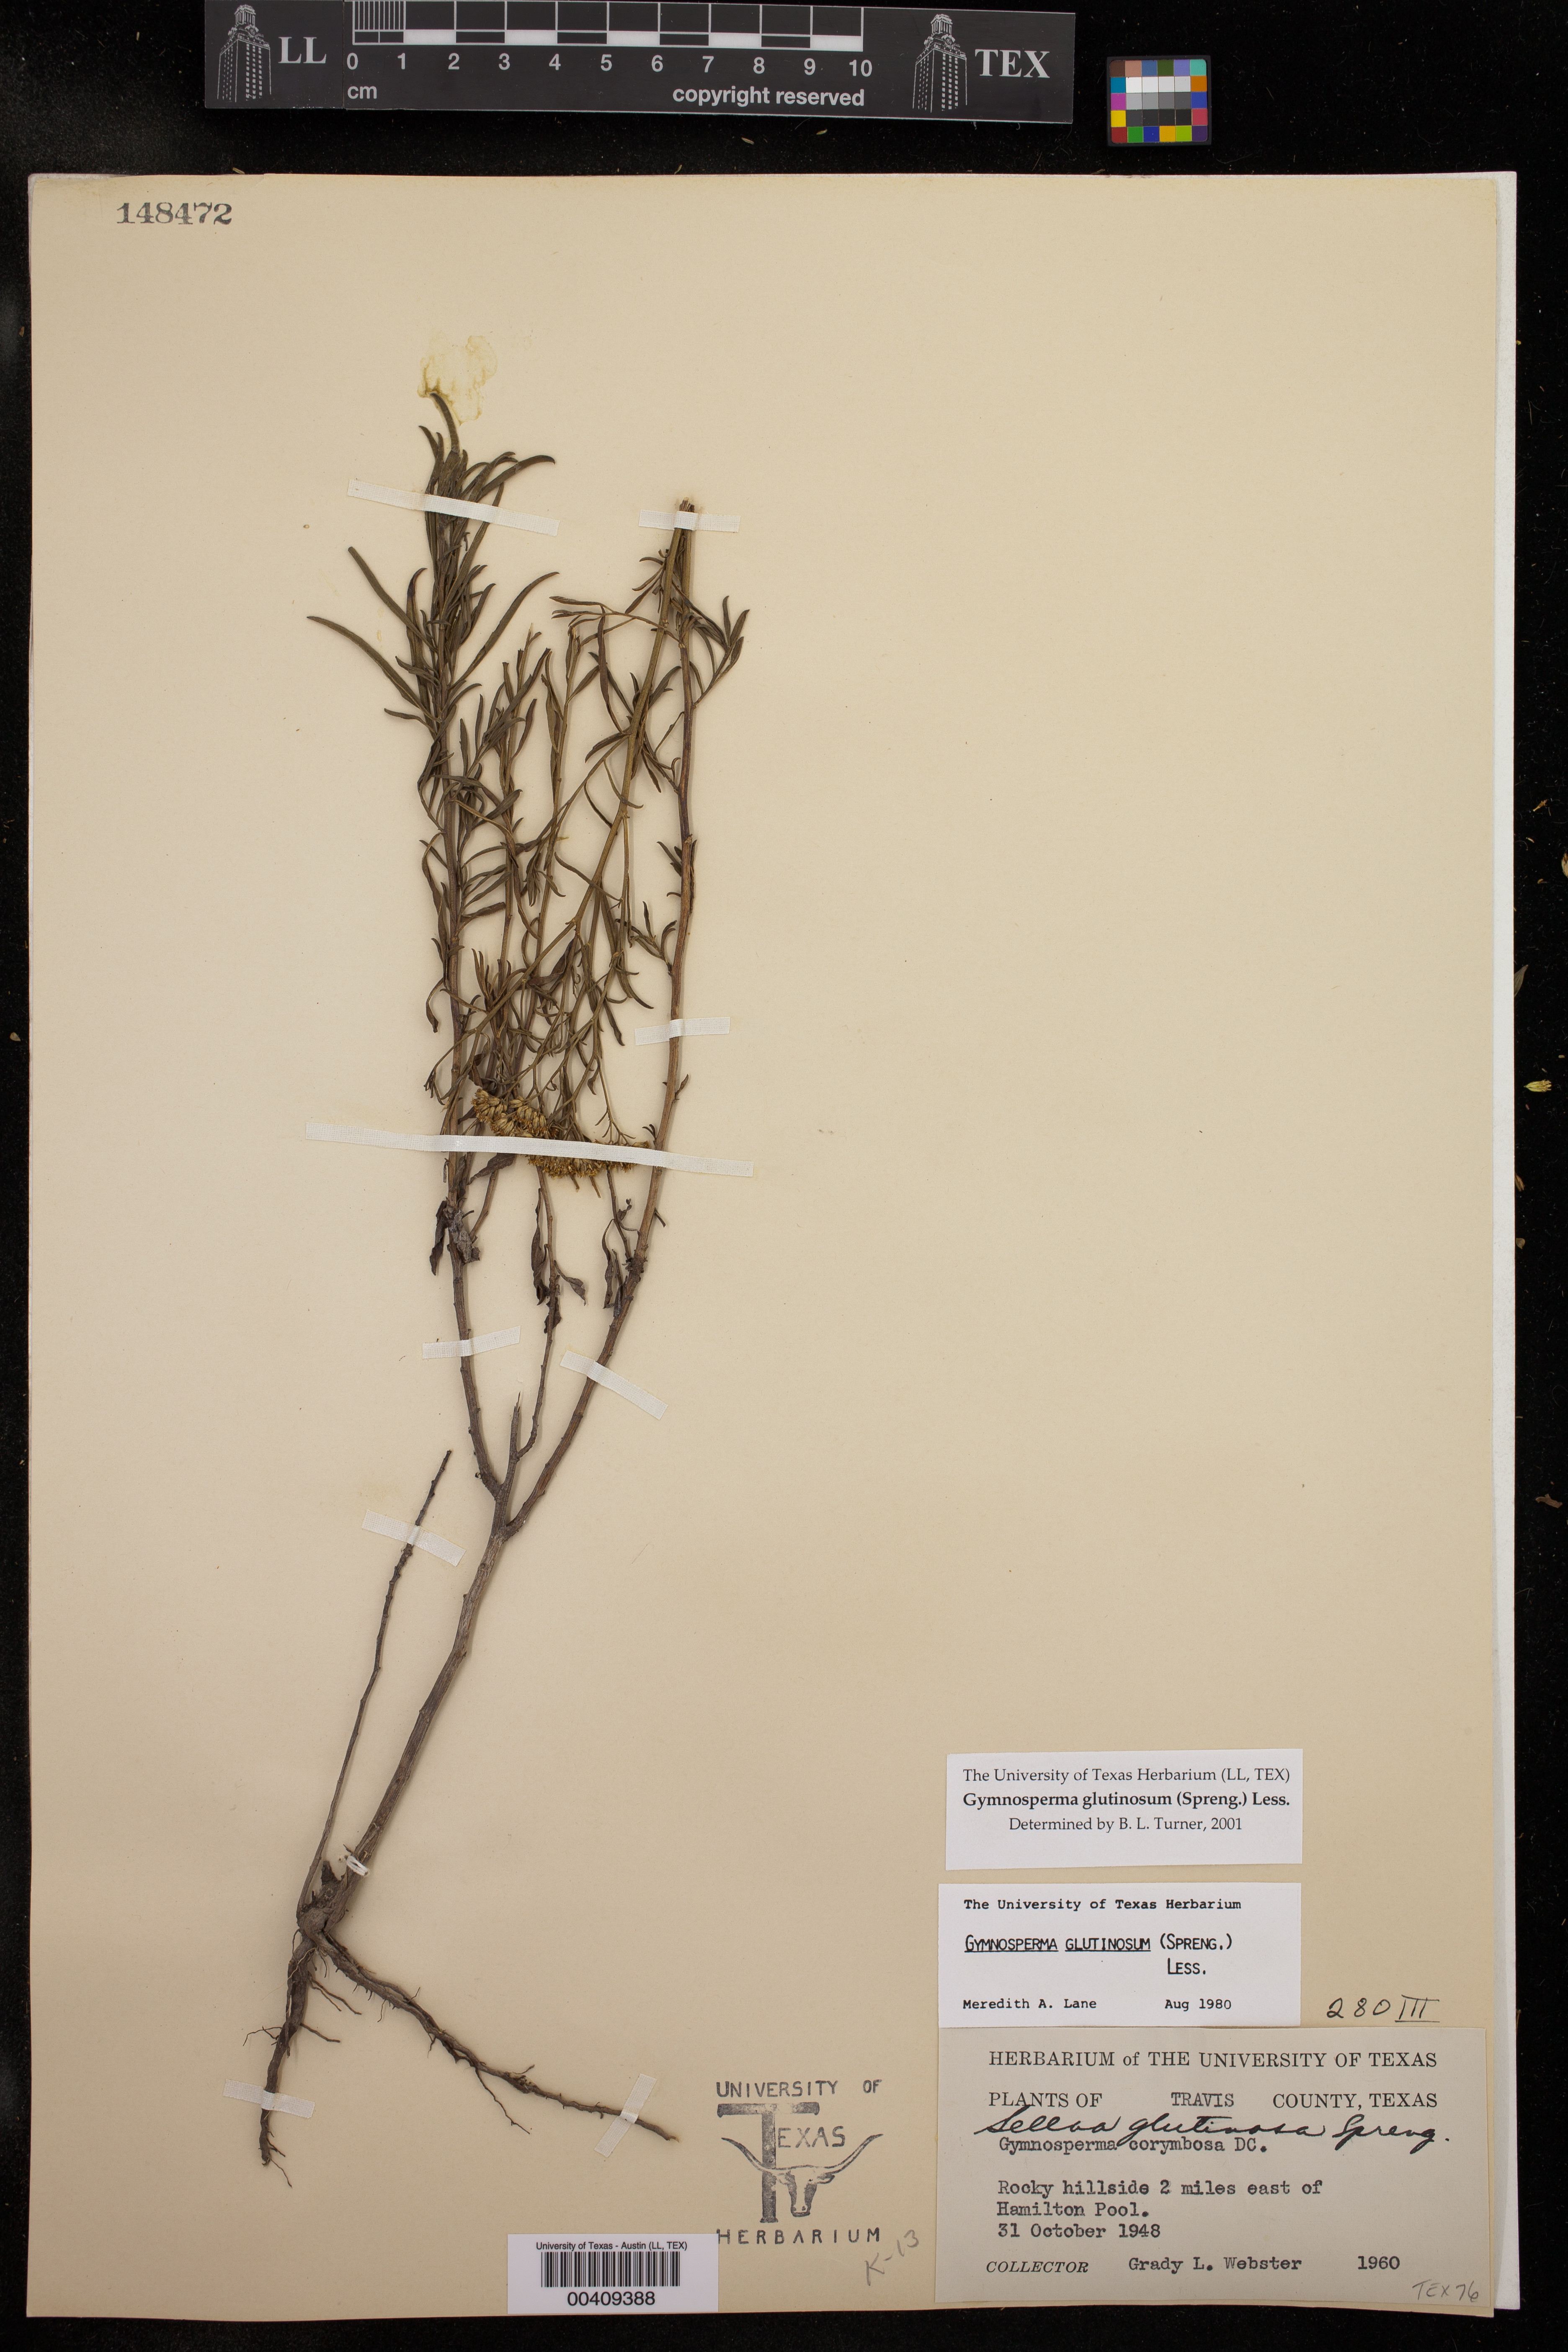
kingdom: Plantae
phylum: Tracheophyta
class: Magnoliopsida
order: Asterales
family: Asteraceae
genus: Gymnosperma
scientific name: Gymnosperma glutinosum
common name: Gumhead
